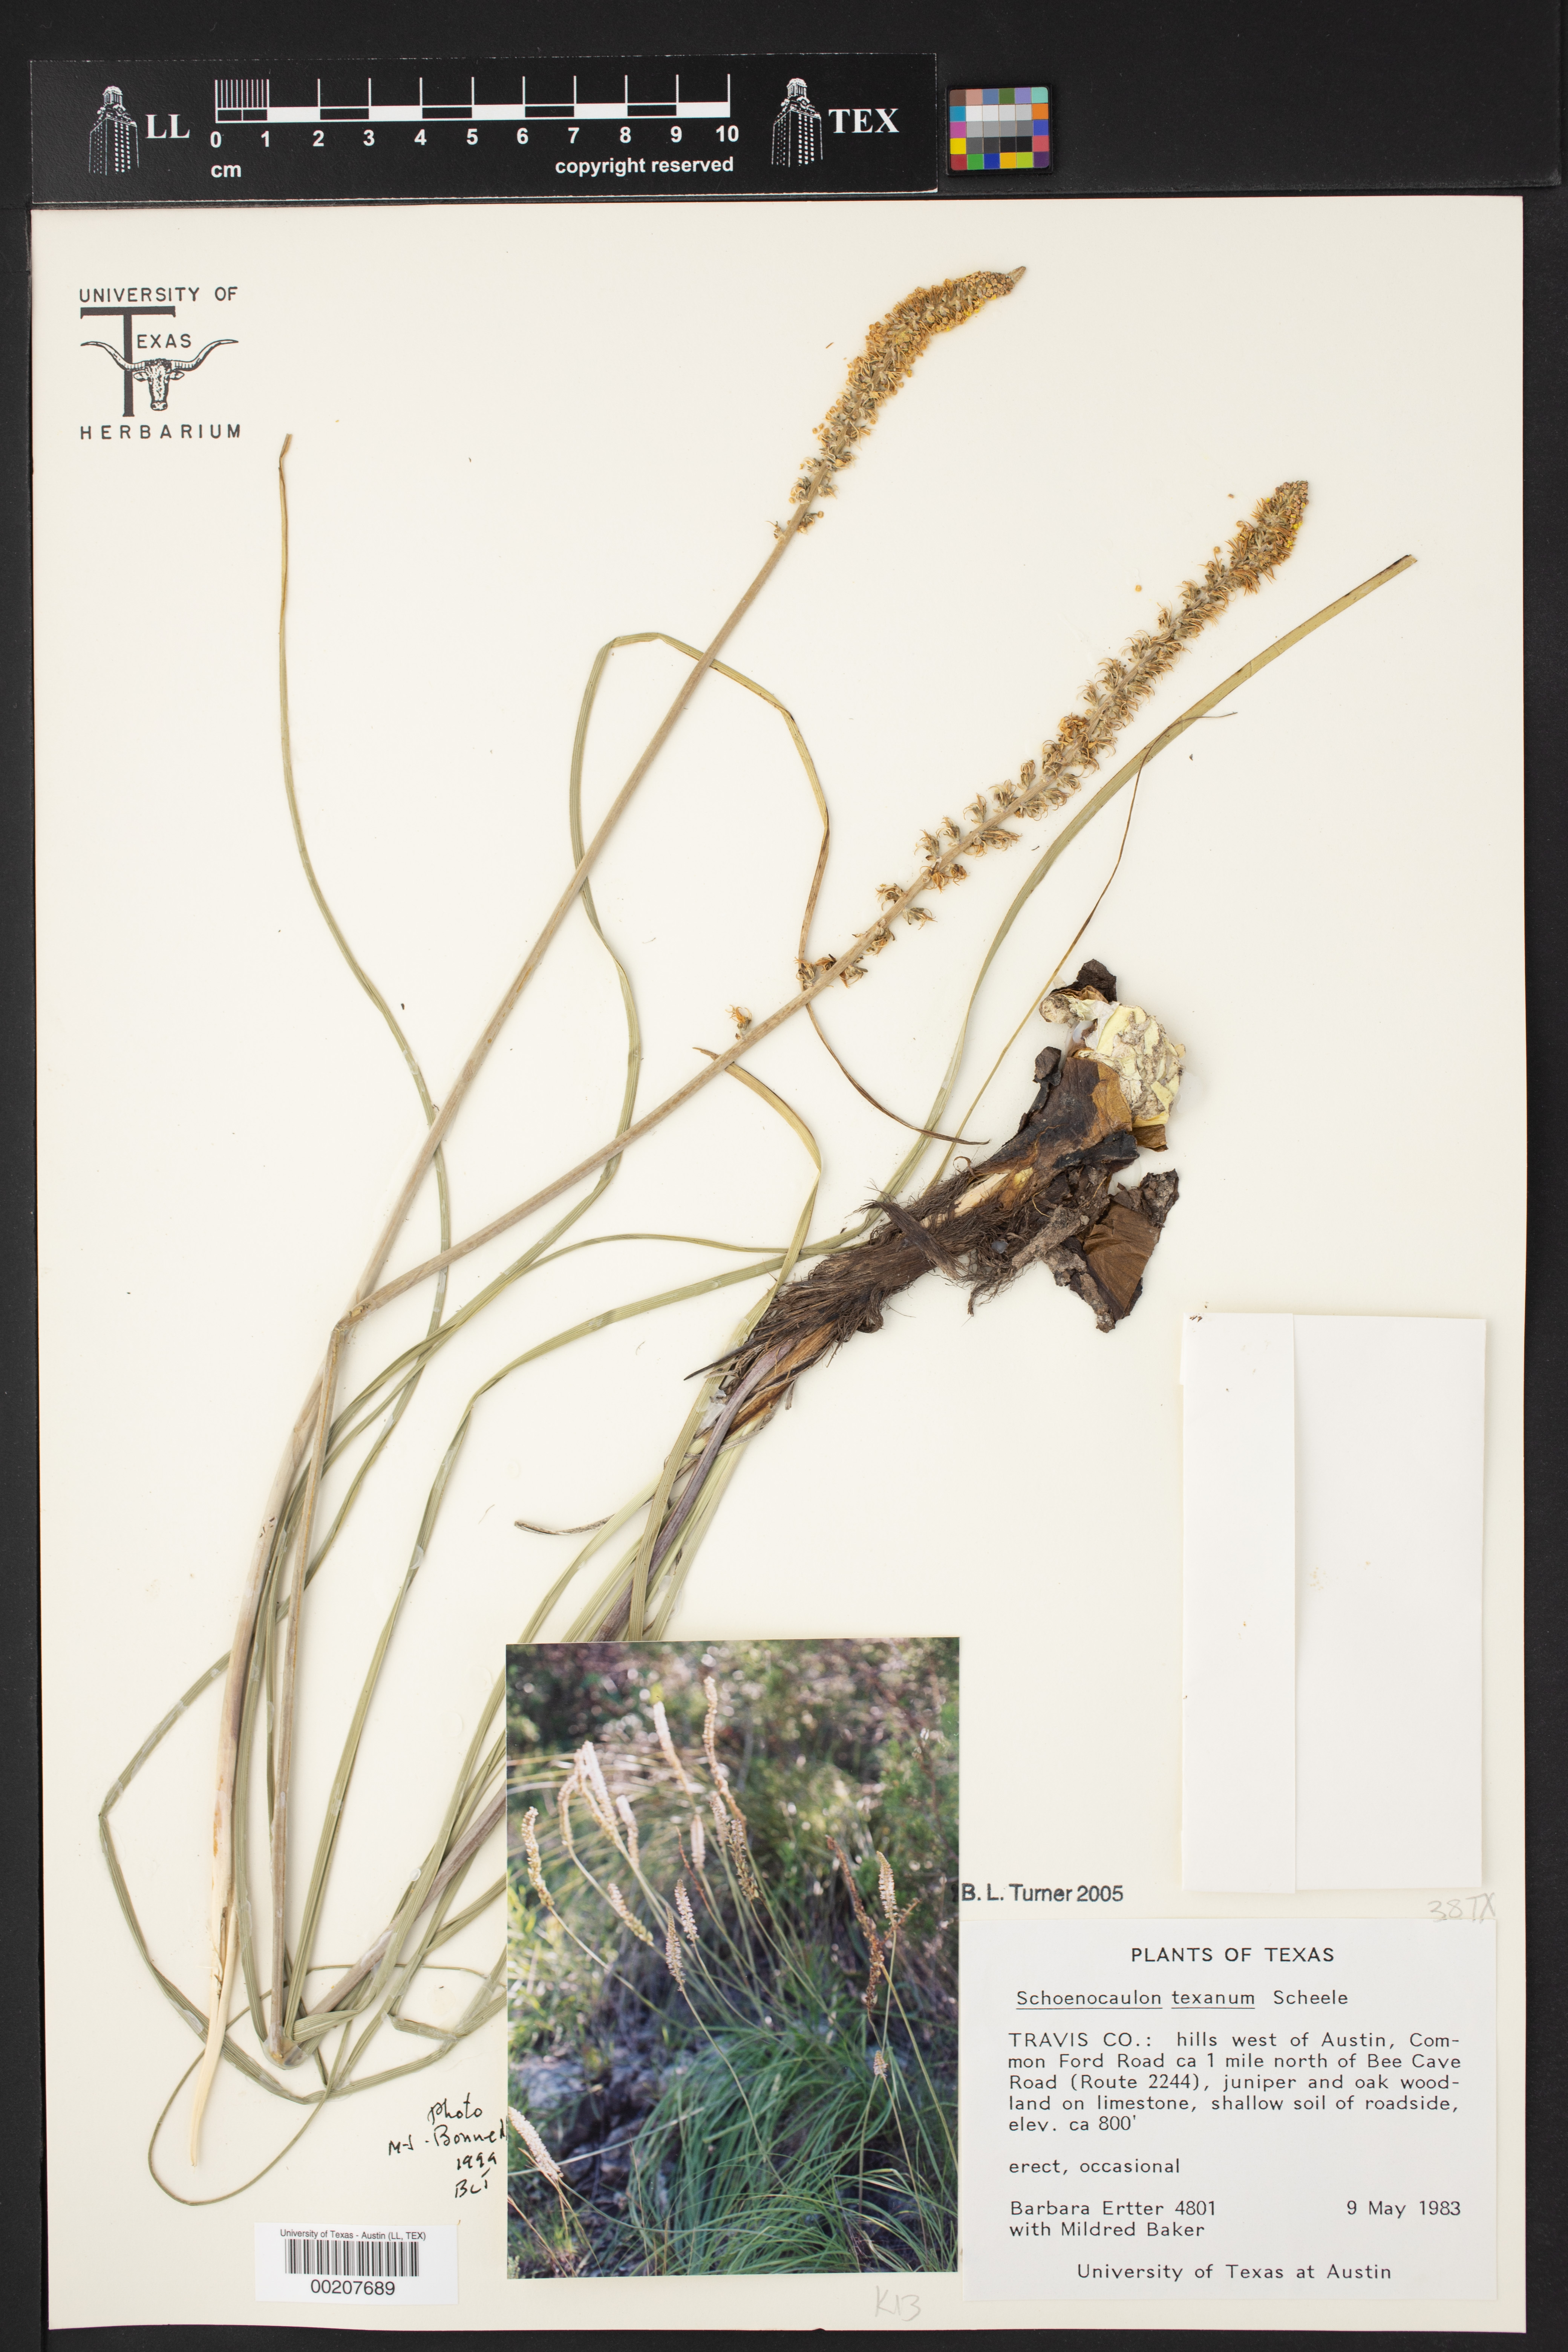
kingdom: Plantae
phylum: Tracheophyta
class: Liliopsida
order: Liliales
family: Melanthiaceae
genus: Schoenocaulon
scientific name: Schoenocaulon texanum
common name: Texas feather-shank
